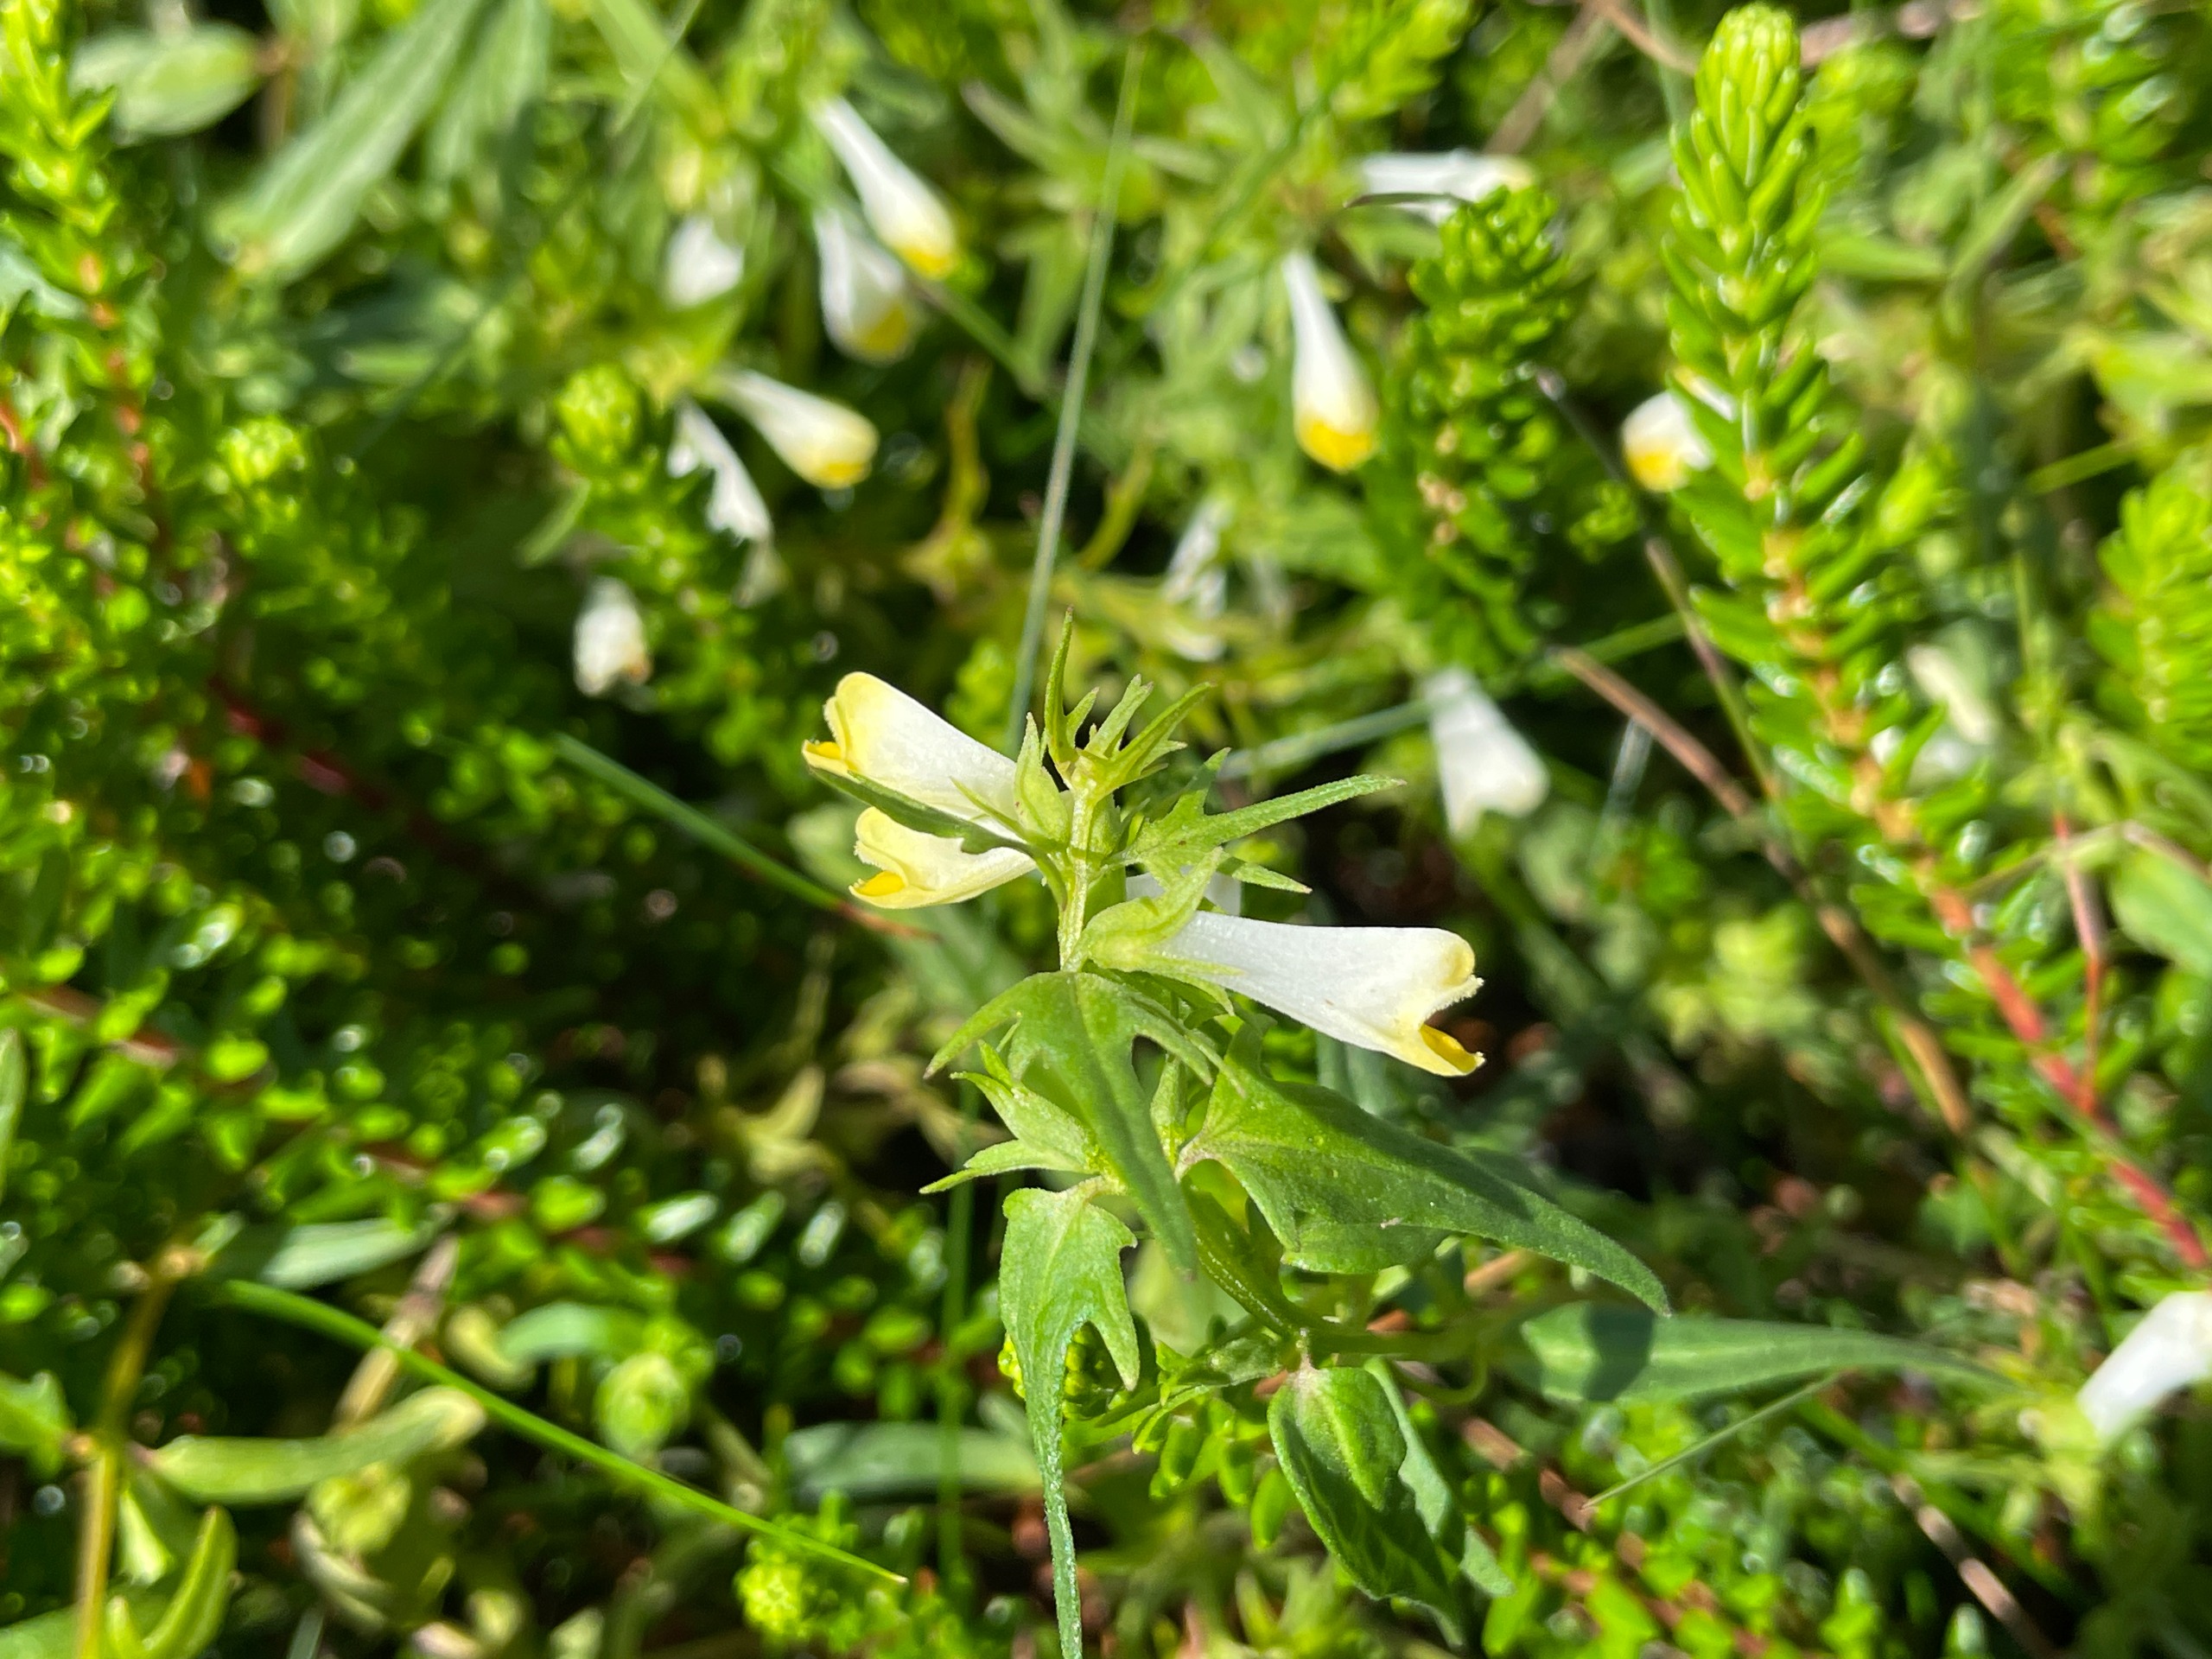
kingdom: Plantae
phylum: Tracheophyta
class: Magnoliopsida
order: Lamiales
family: Orobanchaceae
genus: Melampyrum
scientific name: Melampyrum pratense
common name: Almindelig kohvede
